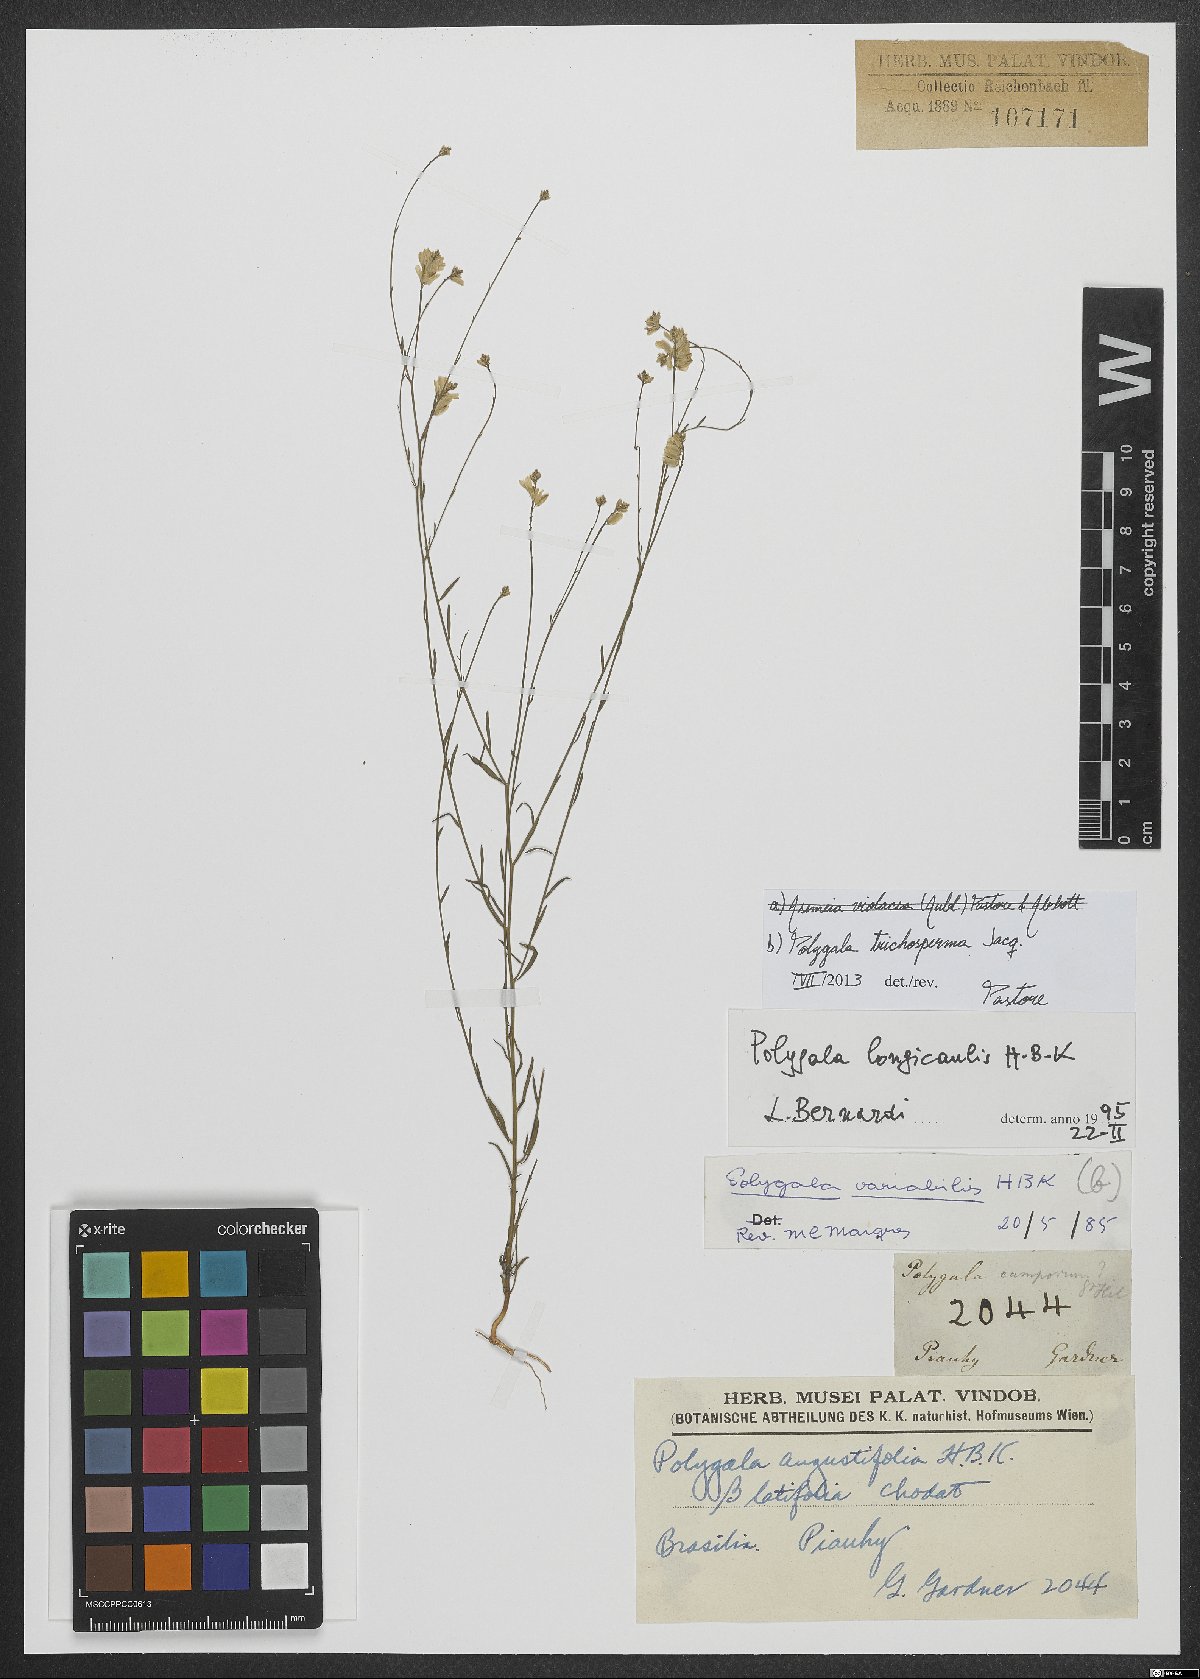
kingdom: Plantae
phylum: Tracheophyta
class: Magnoliopsida
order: Fabales
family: Polygalaceae
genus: Polygala
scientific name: Polygala trichosperma
